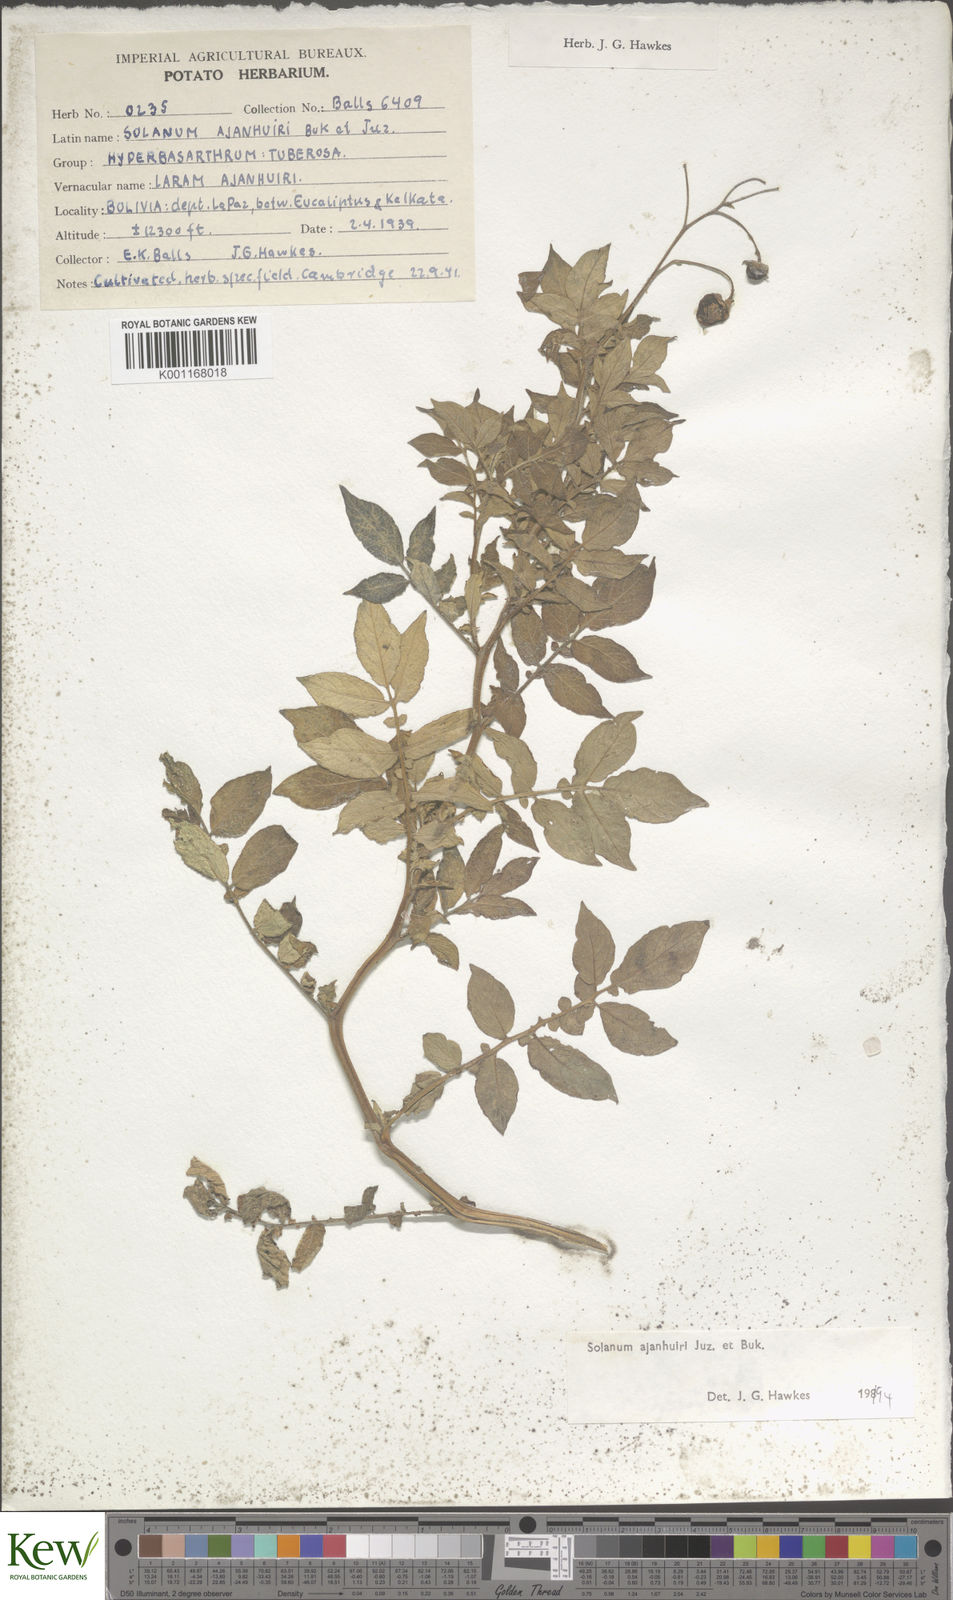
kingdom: Plantae
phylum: Tracheophyta
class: Magnoliopsida
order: Solanales
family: Solanaceae
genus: Solanum
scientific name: Solanum ajanhuiri
